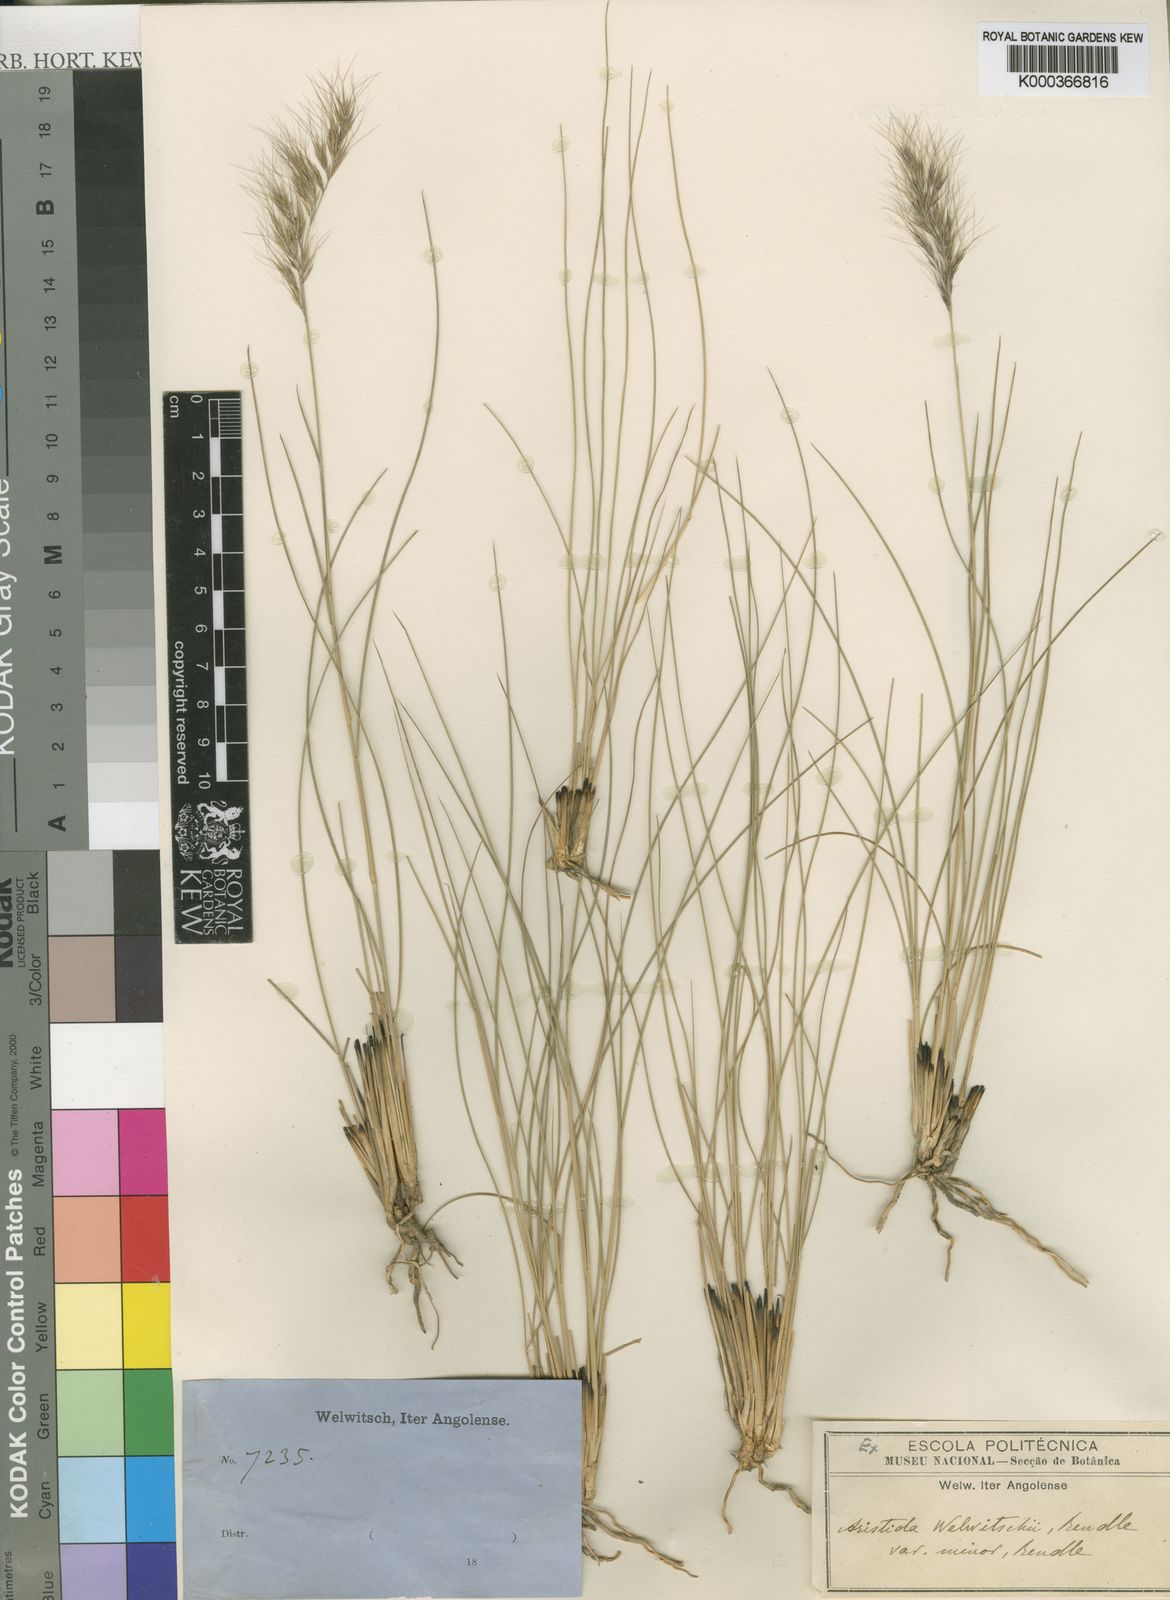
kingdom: Plantae
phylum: Tracheophyta
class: Liliopsida
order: Poales
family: Poaceae
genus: Aristida
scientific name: Aristida junciformis
